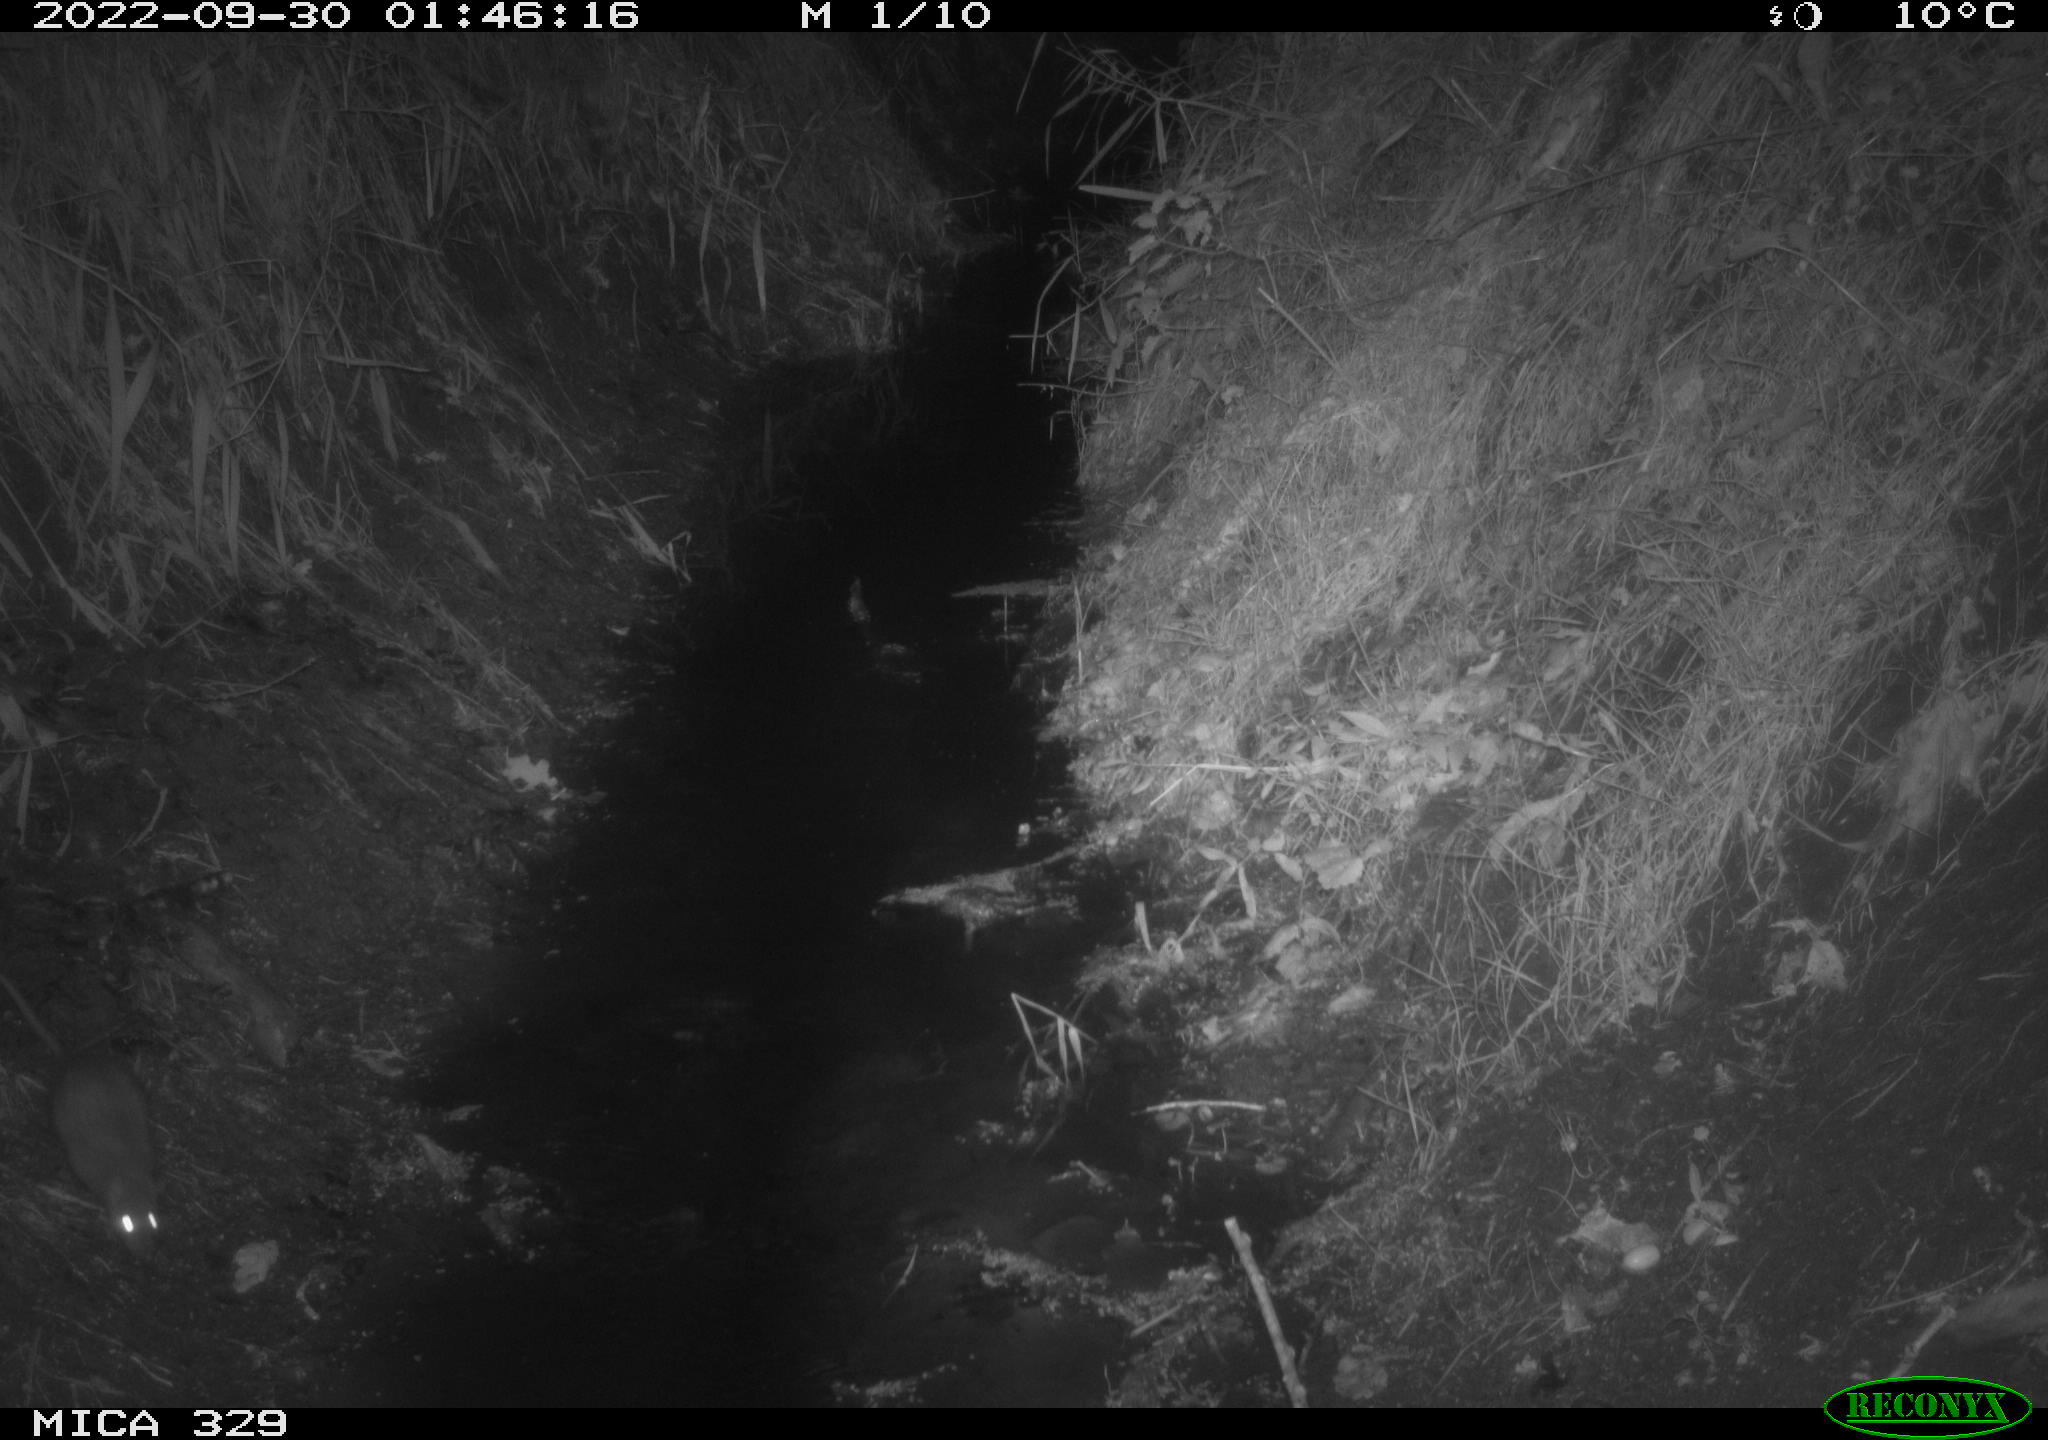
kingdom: Animalia
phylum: Chordata
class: Mammalia
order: Rodentia
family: Muridae
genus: Rattus
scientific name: Rattus norvegicus
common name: Brown rat
